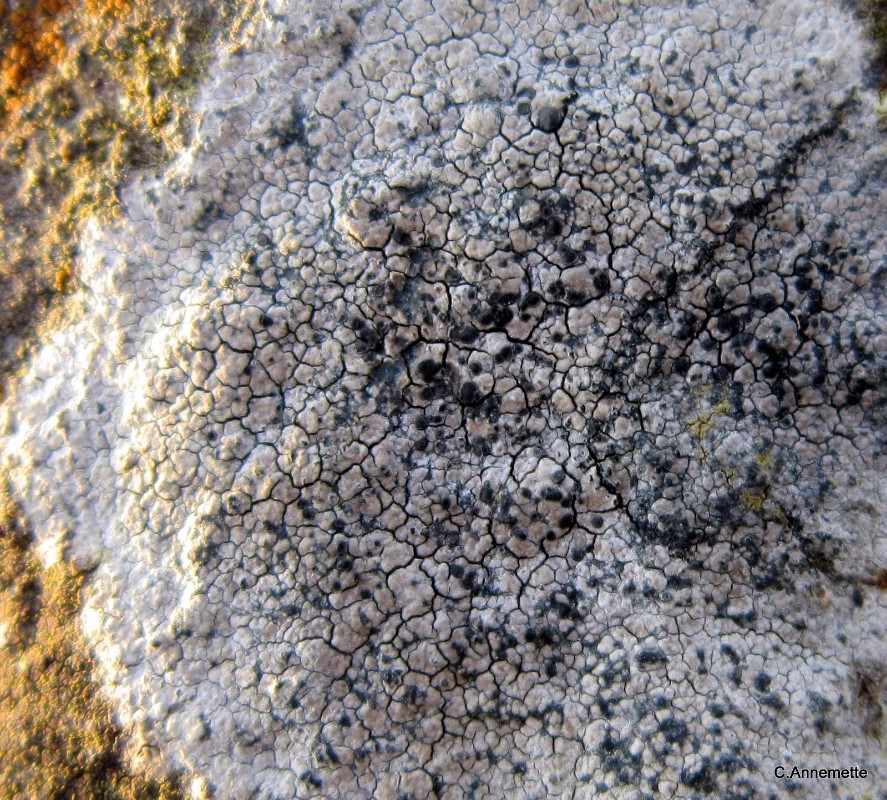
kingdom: Fungi
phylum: Ascomycota
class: Lecanoromycetes
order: Lecideales
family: Lecideaceae
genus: Lecidea
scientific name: Lecidea fuscoatra
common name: rudret skivelav
